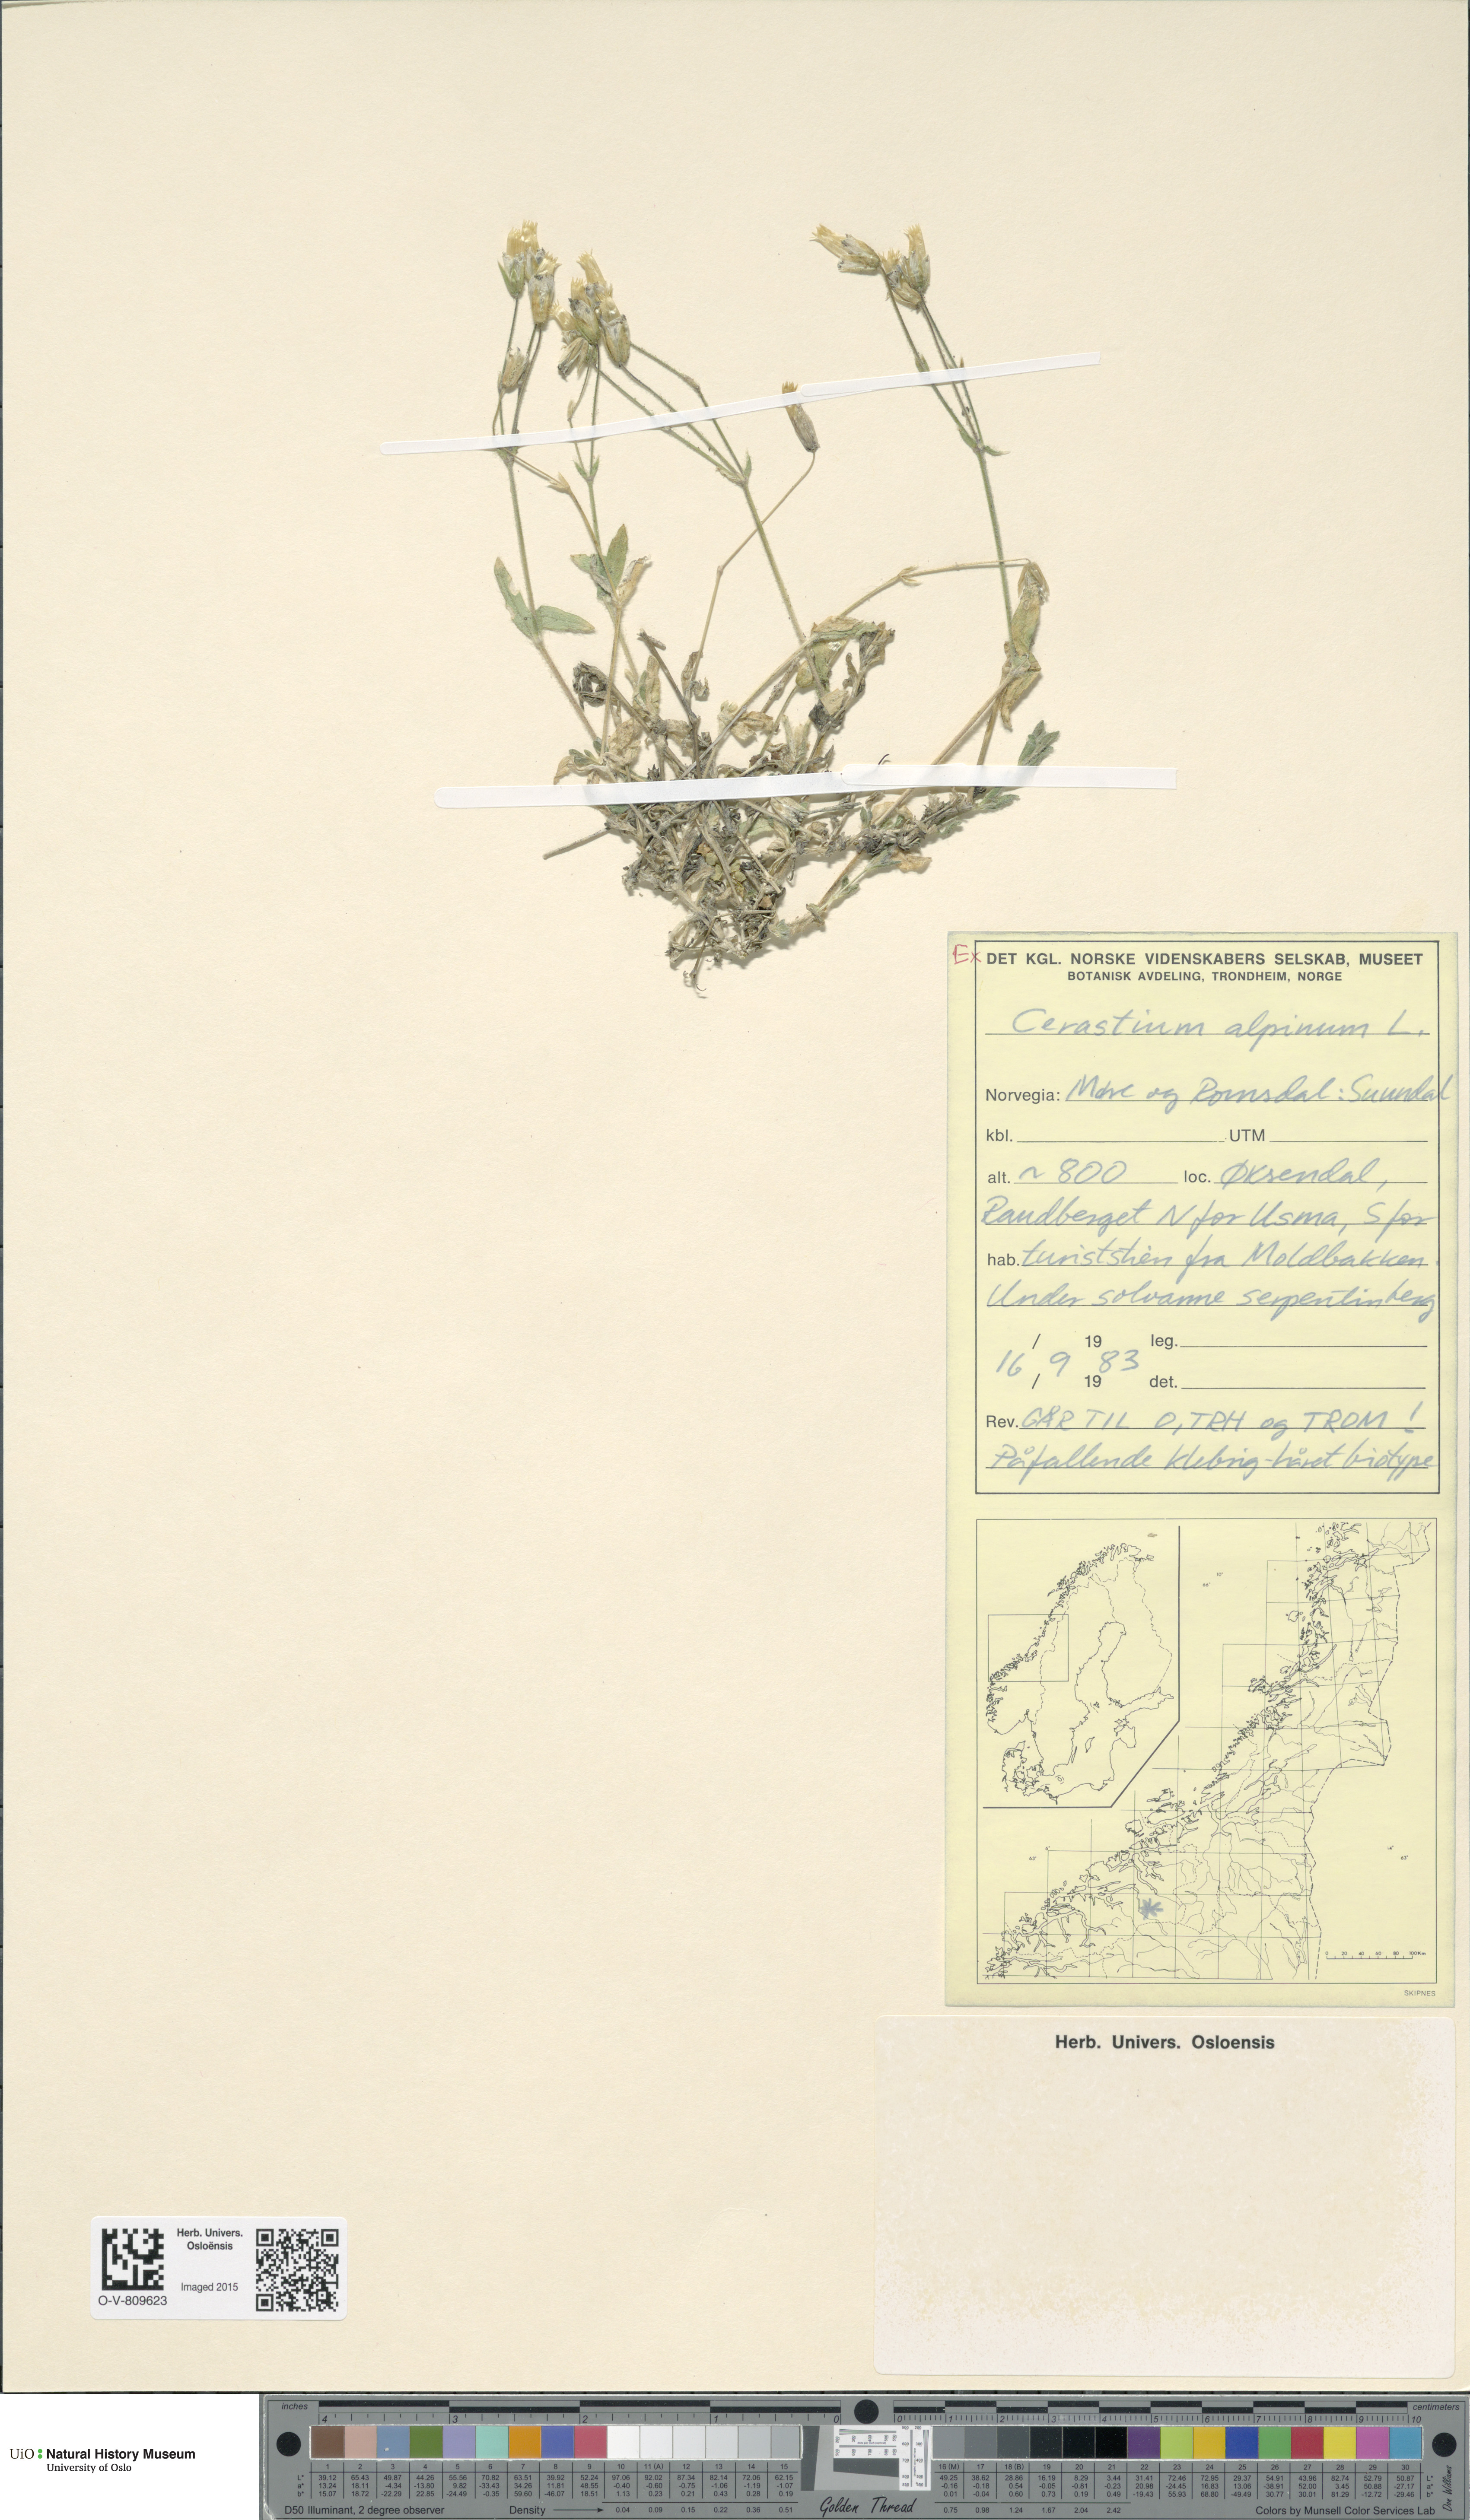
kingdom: Plantae
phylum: Tracheophyta
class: Magnoliopsida
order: Caryophyllales
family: Caryophyllaceae
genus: Cerastium
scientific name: Cerastium alpinum
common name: Alpine mouse-ear
